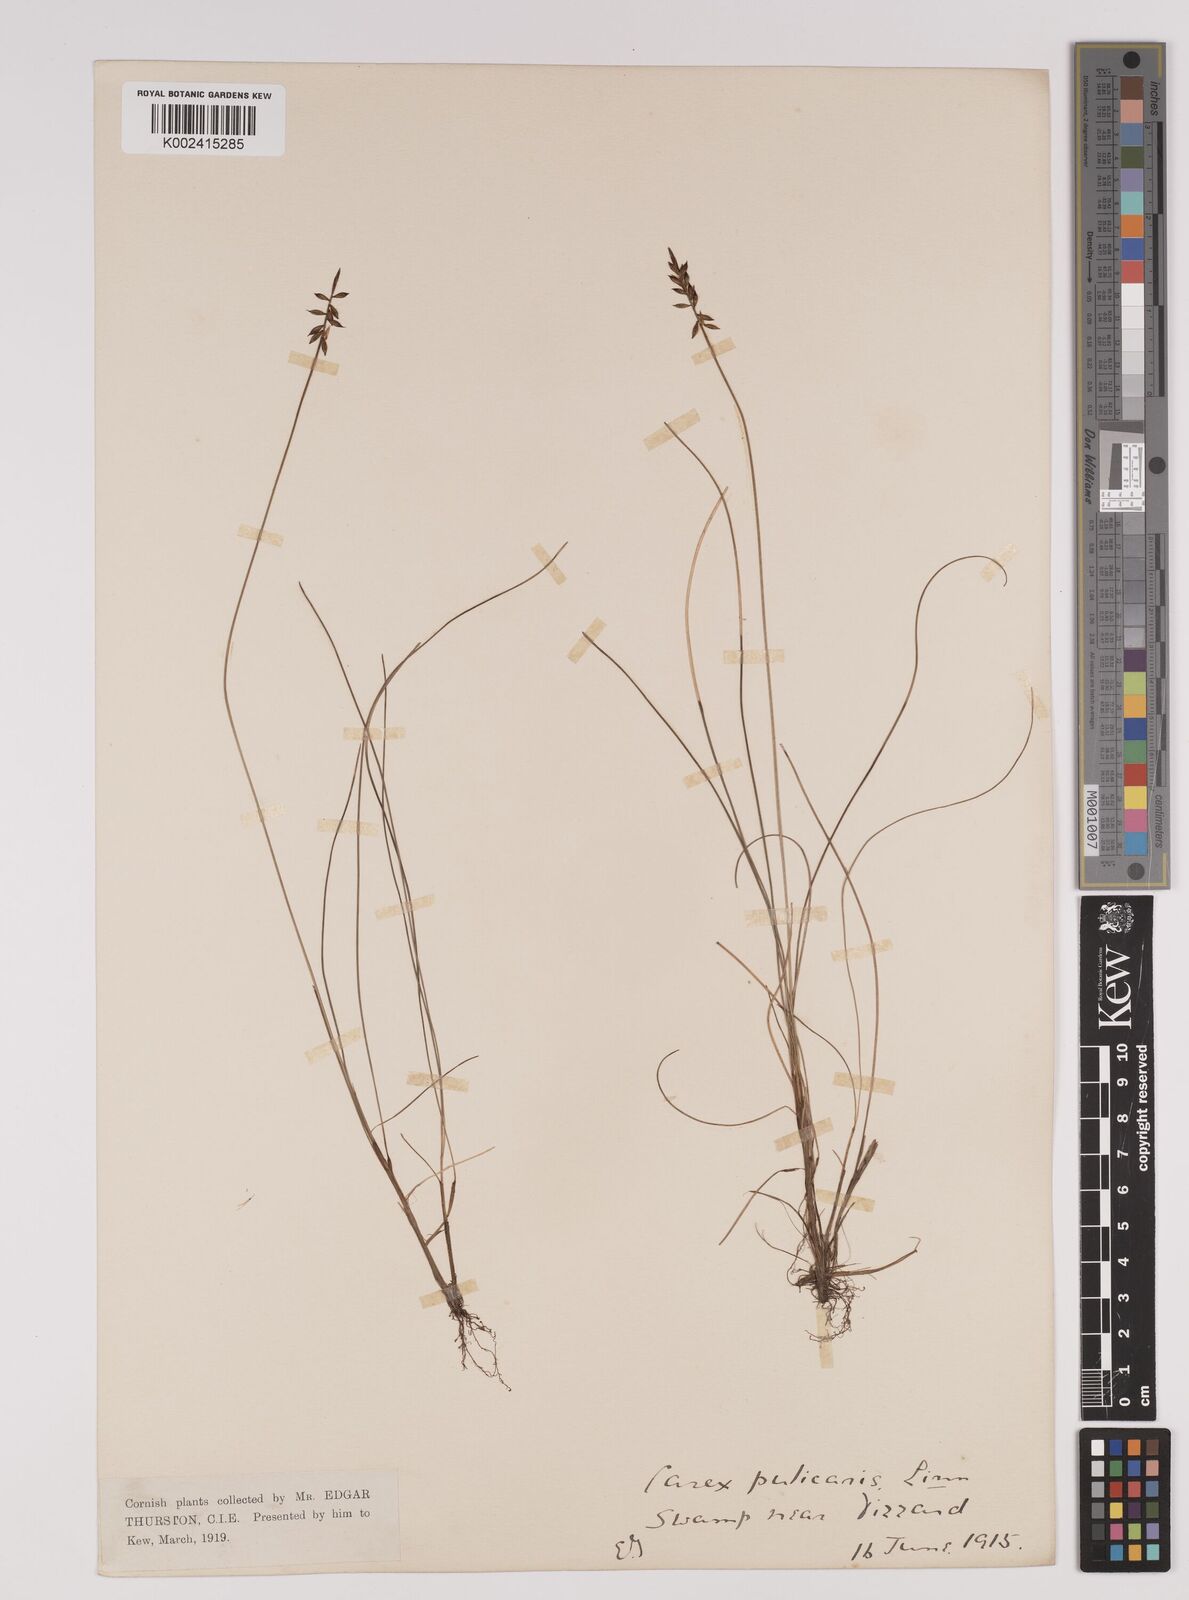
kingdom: Plantae
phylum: Tracheophyta
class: Liliopsida
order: Poales
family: Cyperaceae
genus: Carex
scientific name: Carex pulicaris
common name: Flea sedge
